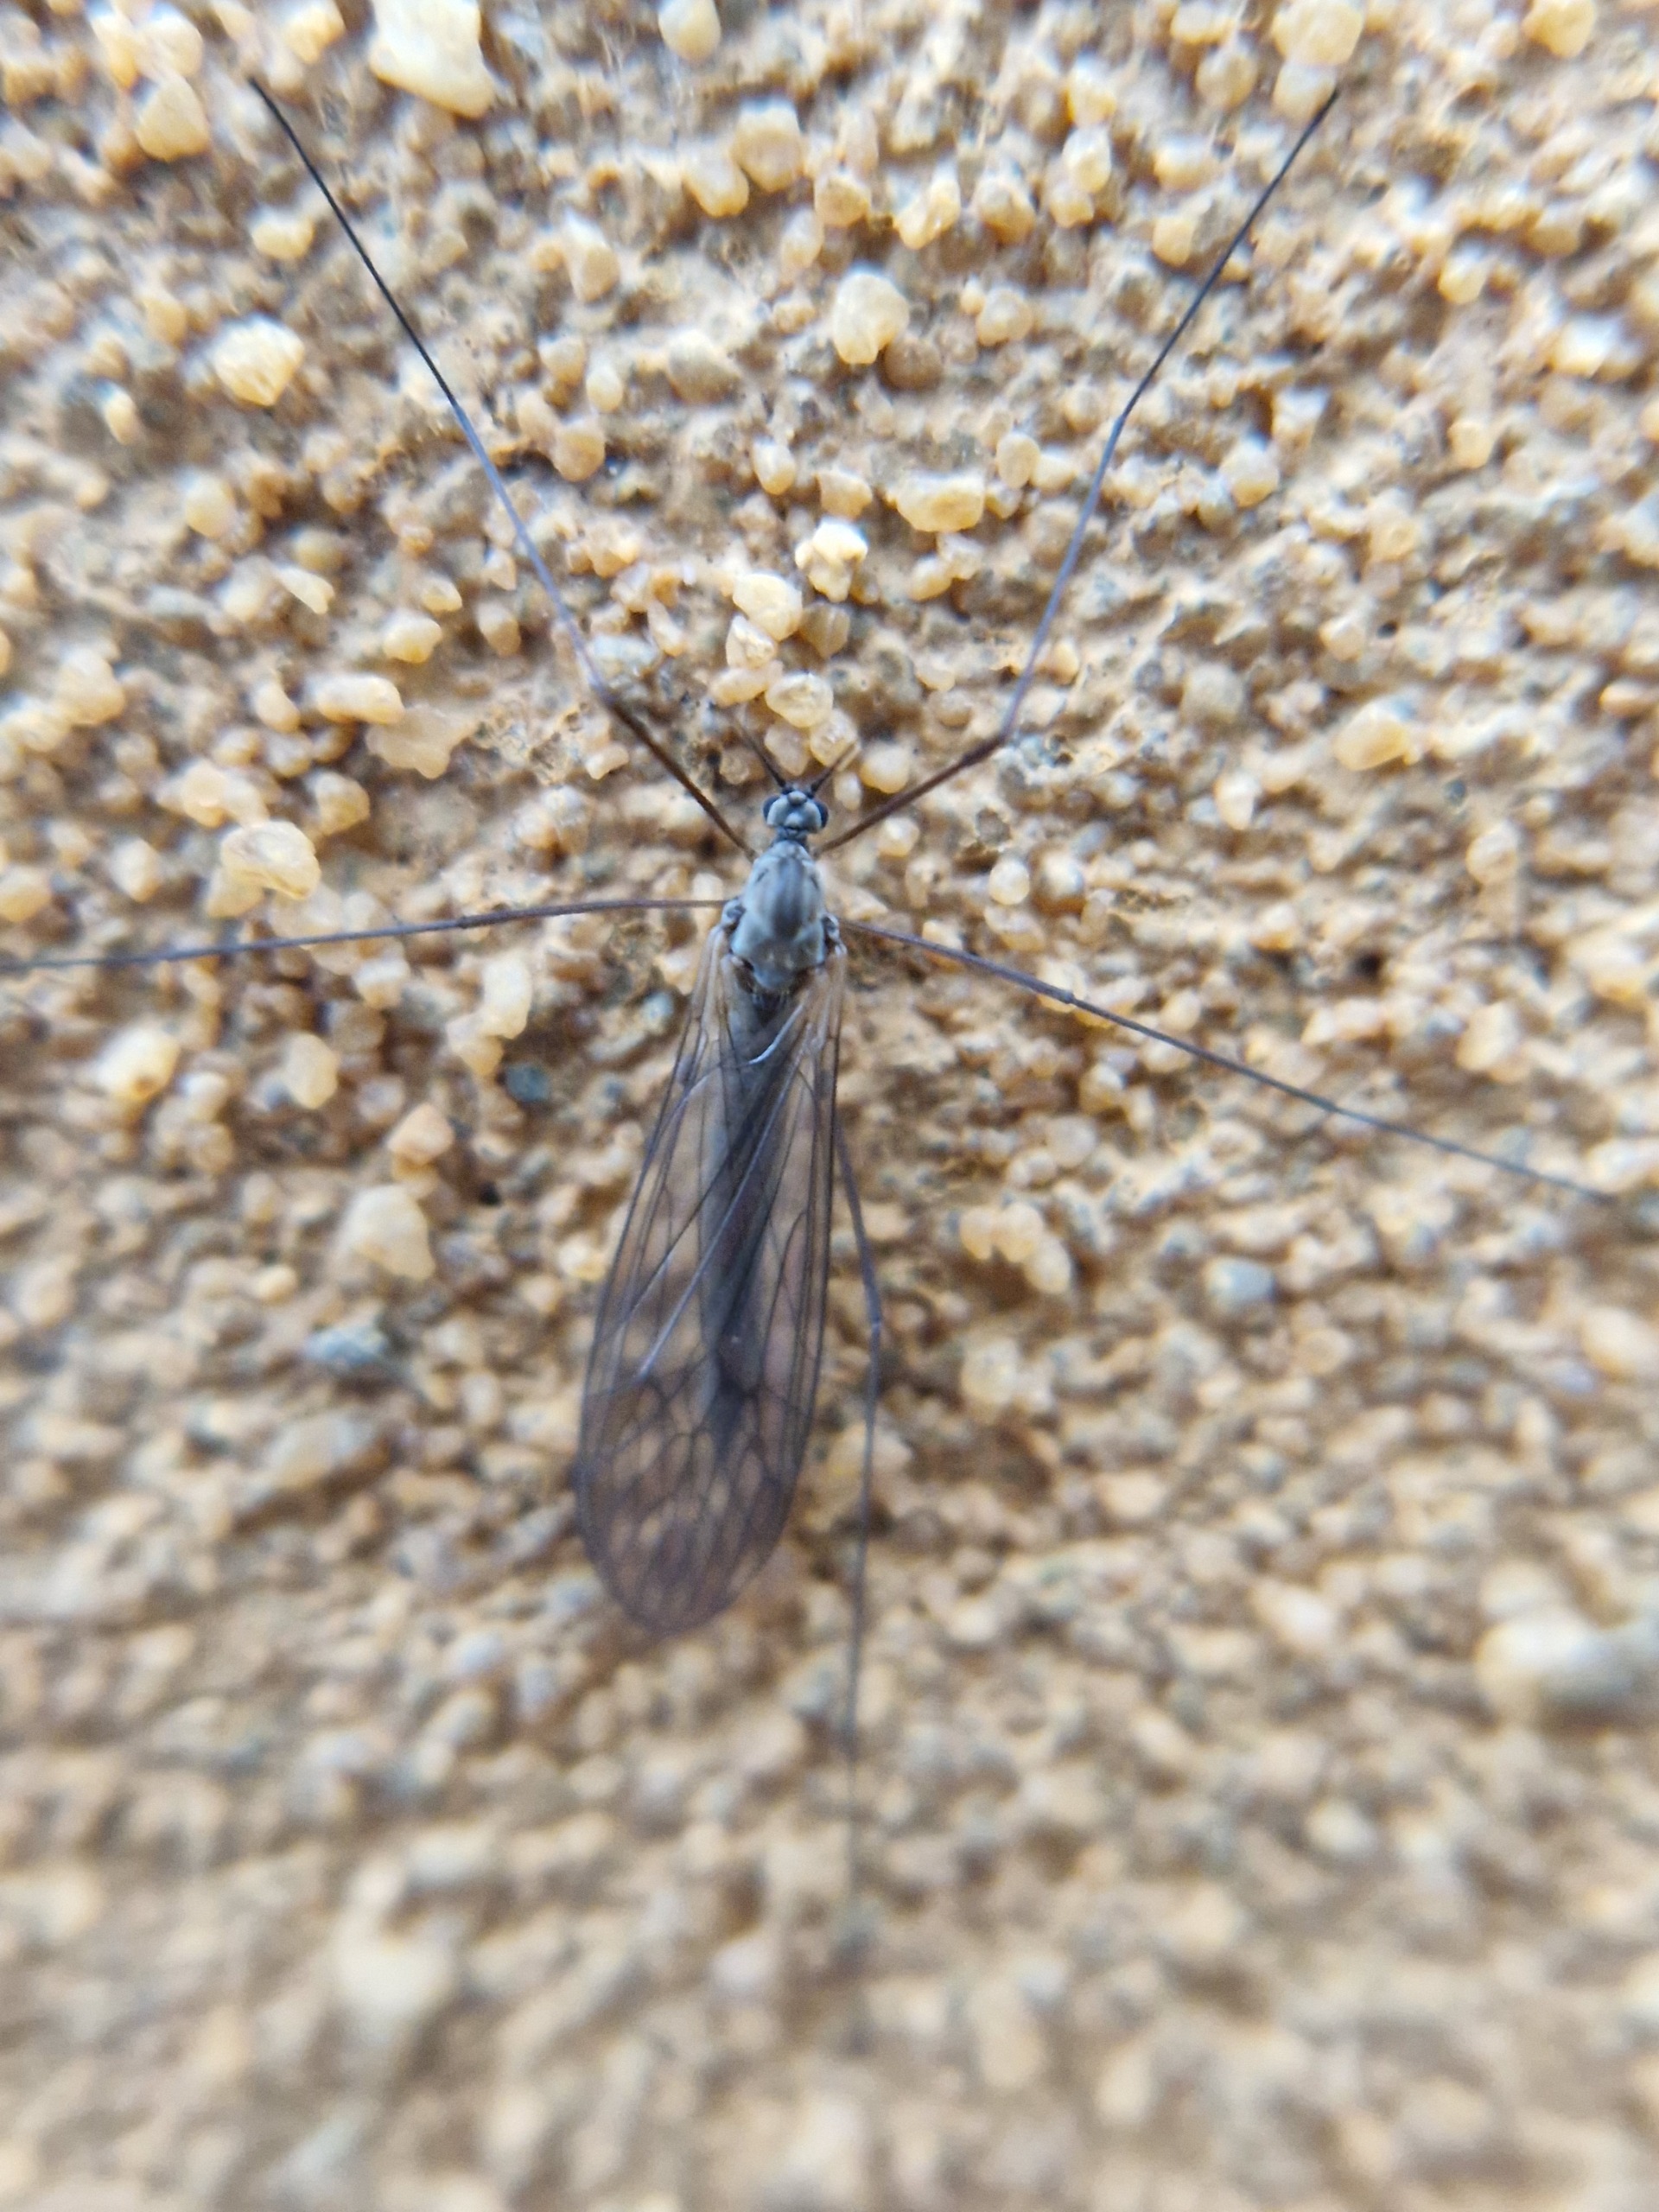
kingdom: Animalia
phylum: Arthropoda
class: Insecta
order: Diptera
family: Trichoceridae
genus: Trichocera
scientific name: Trichocera
